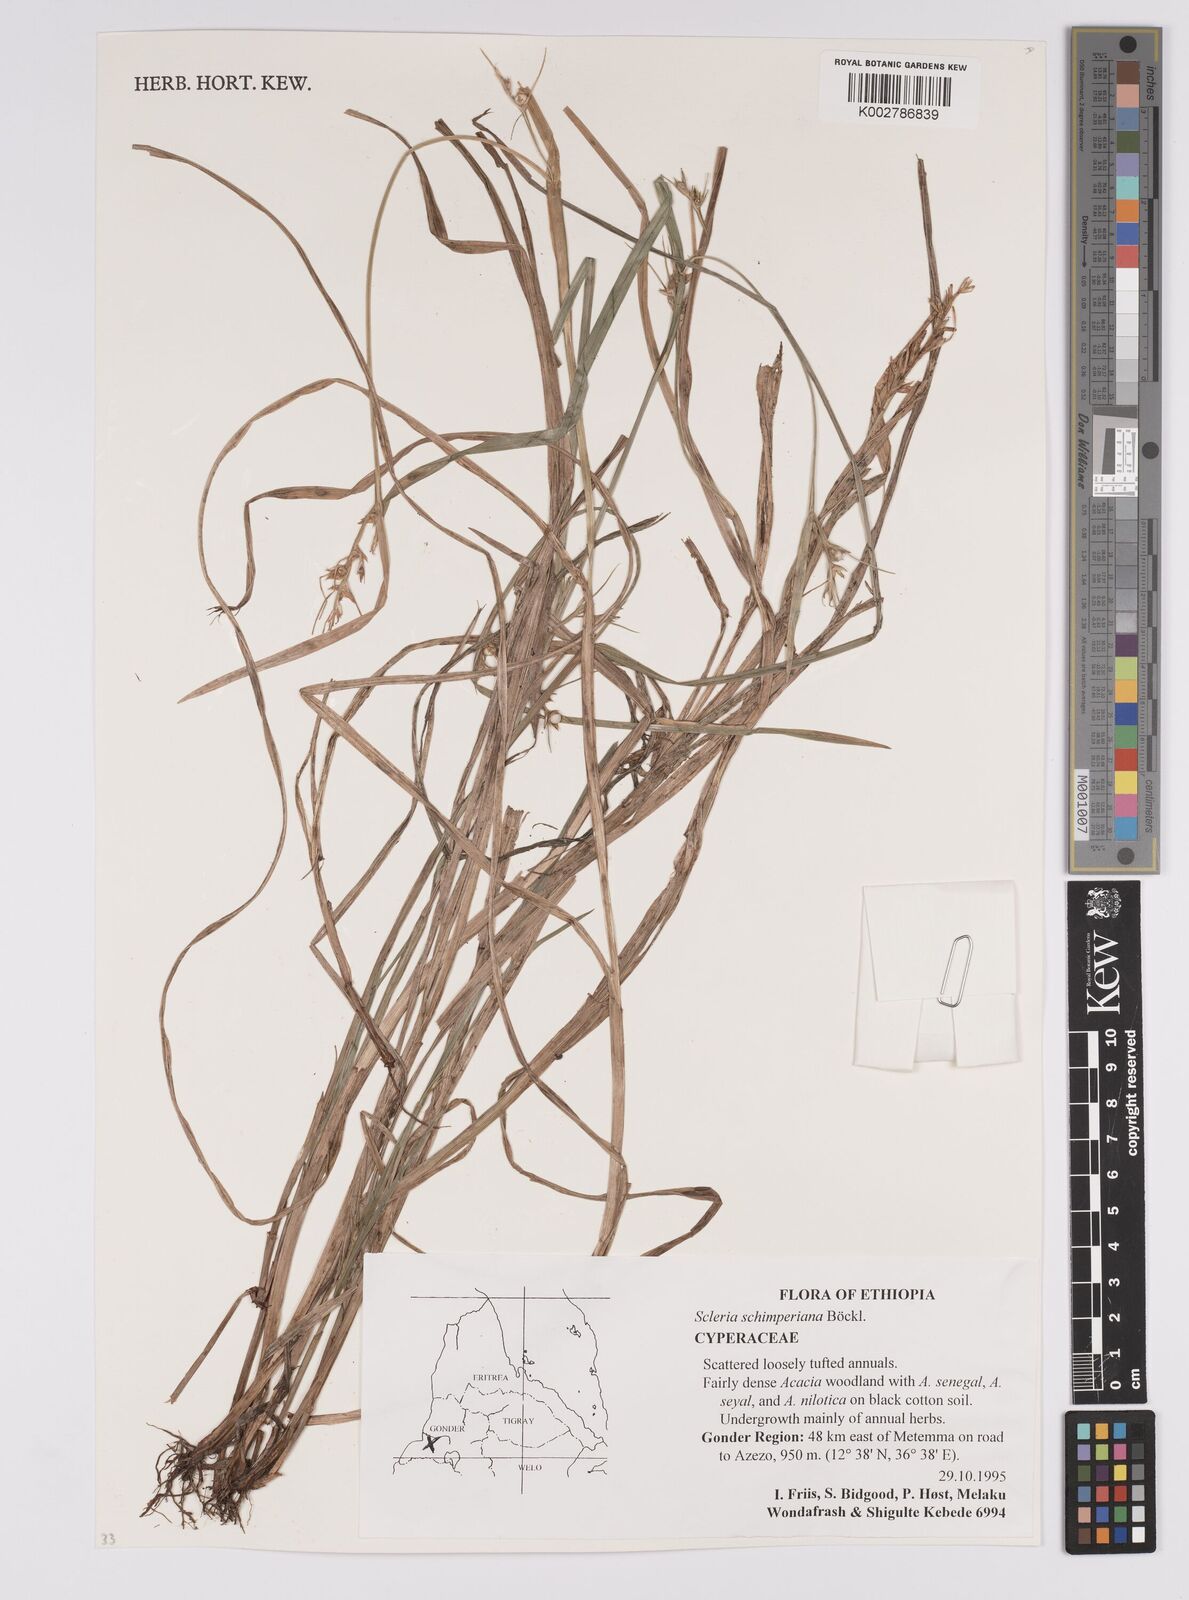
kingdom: Plantae
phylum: Tracheophyta
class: Liliopsida
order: Poales
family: Cyperaceae
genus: Scleria
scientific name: Scleria schimperiana
